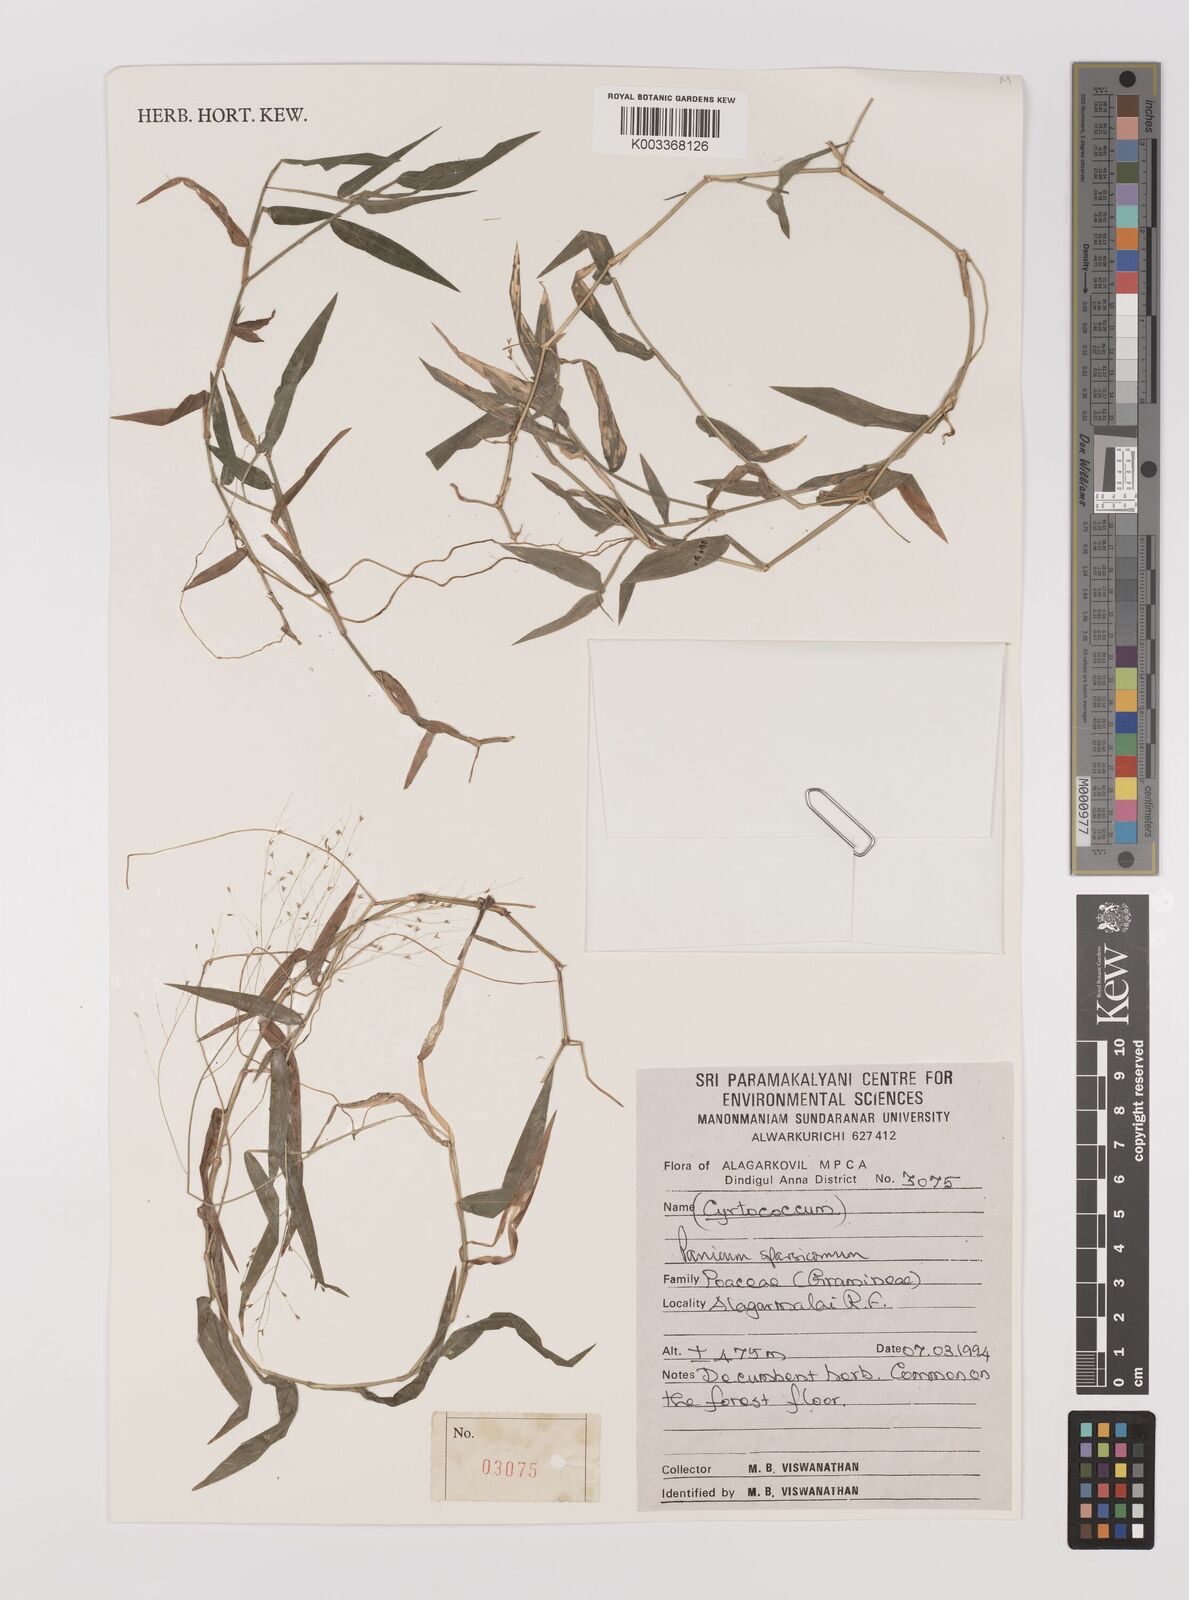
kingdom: Plantae
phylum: Tracheophyta
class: Liliopsida
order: Poales
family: Poaceae
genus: Panicum
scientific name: Panicum sparsicomum
